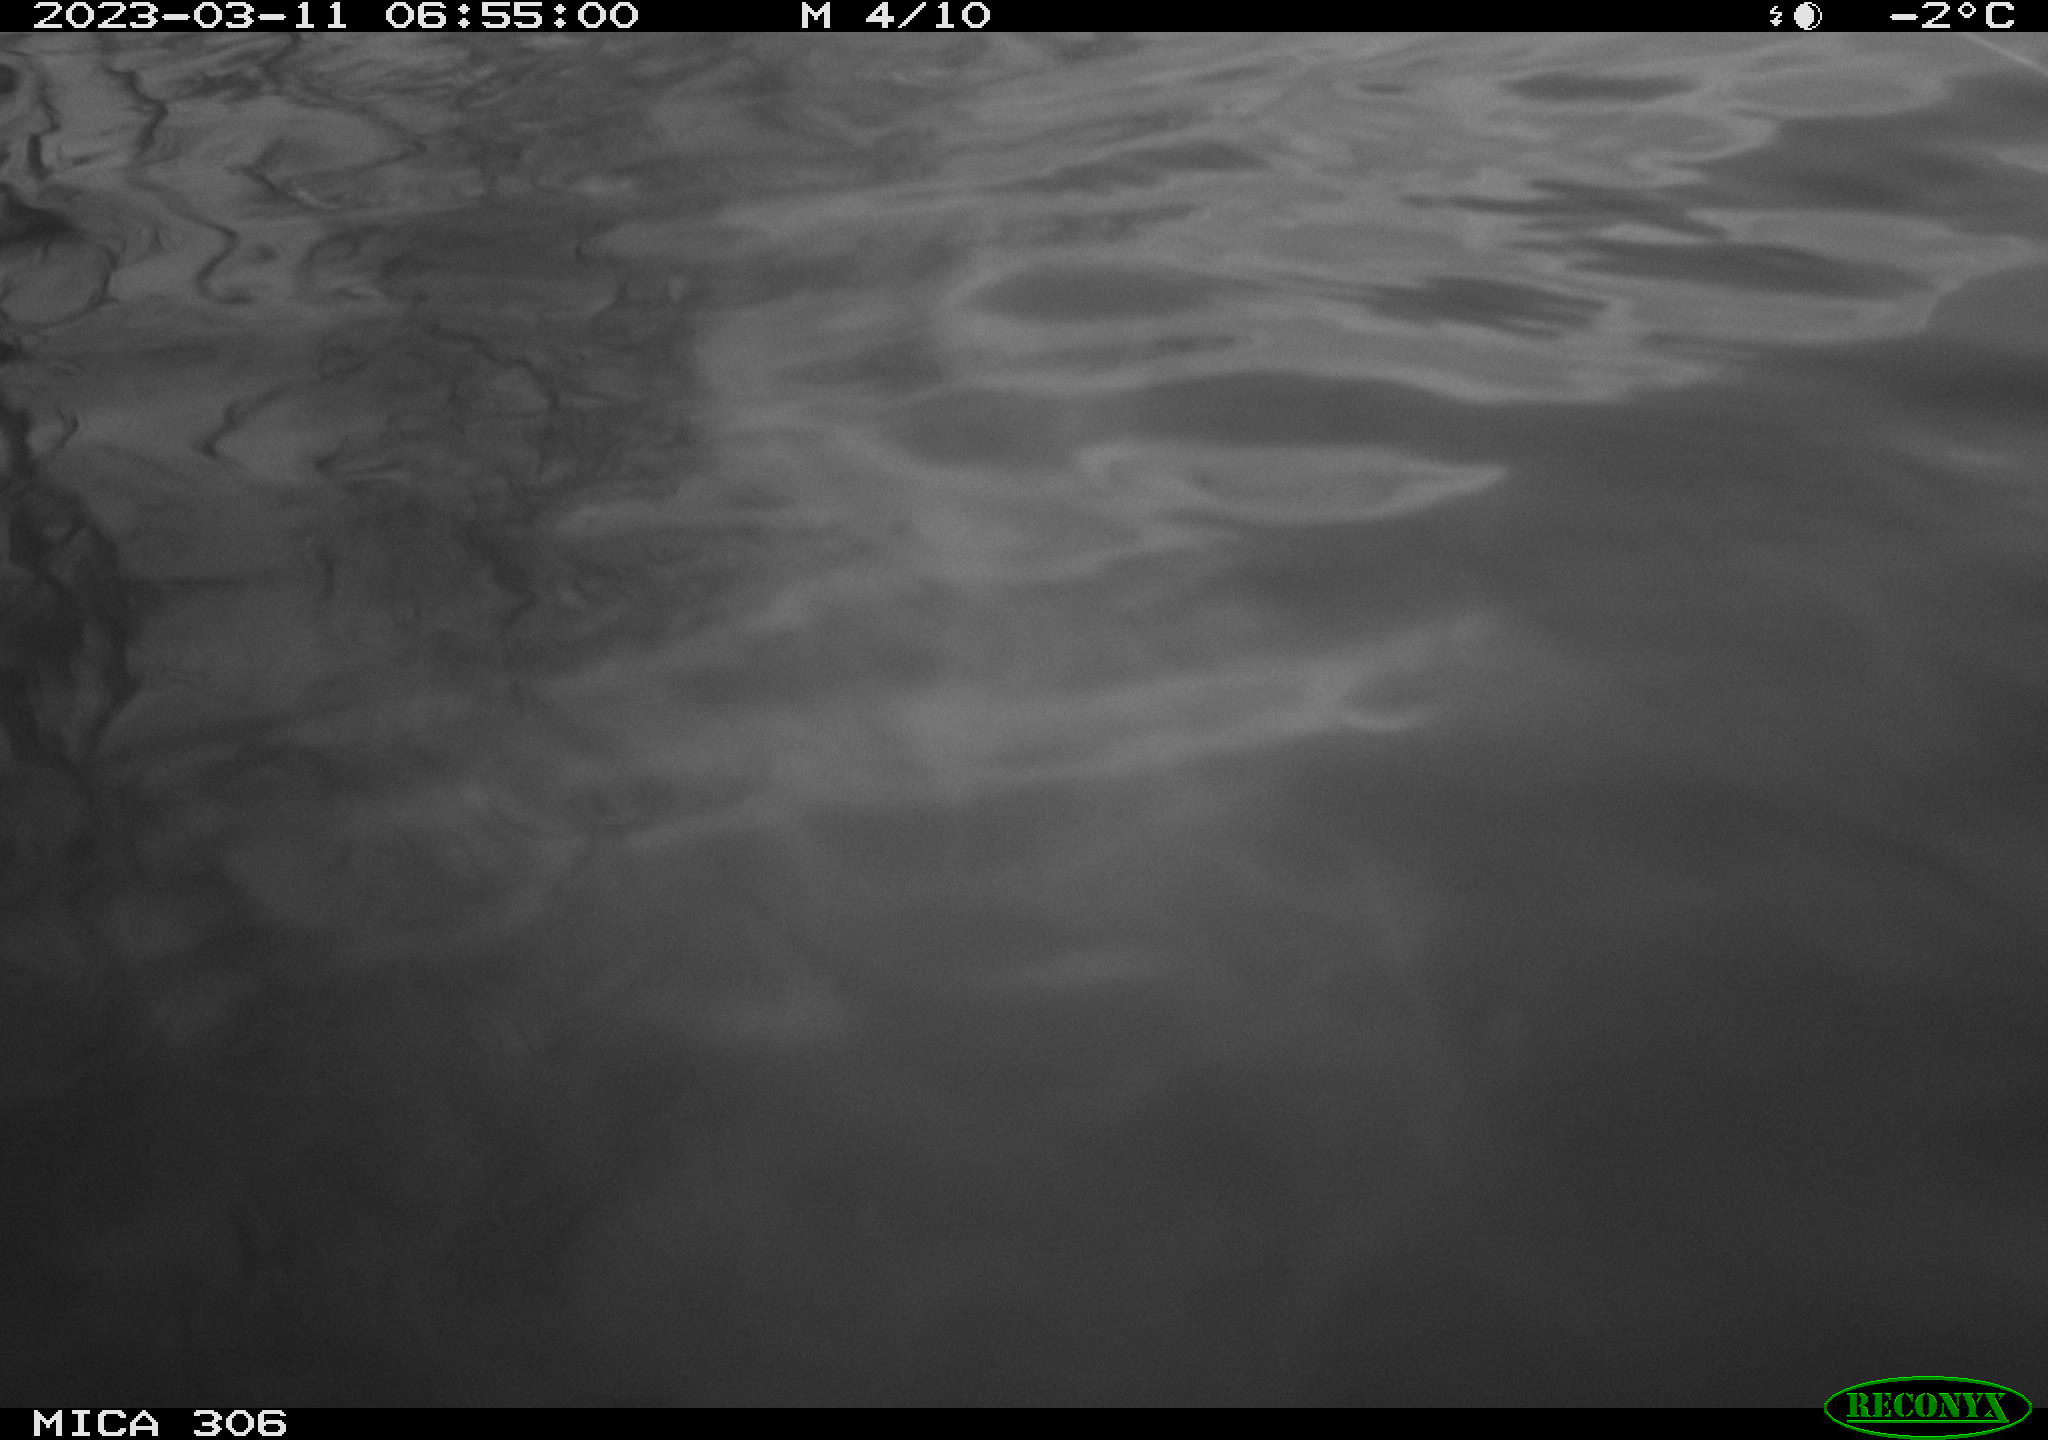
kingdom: Animalia
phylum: Chordata
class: Aves
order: Pelecaniformes
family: Ardeidae
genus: Ardea
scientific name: Ardea cinerea
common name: Grey heron
